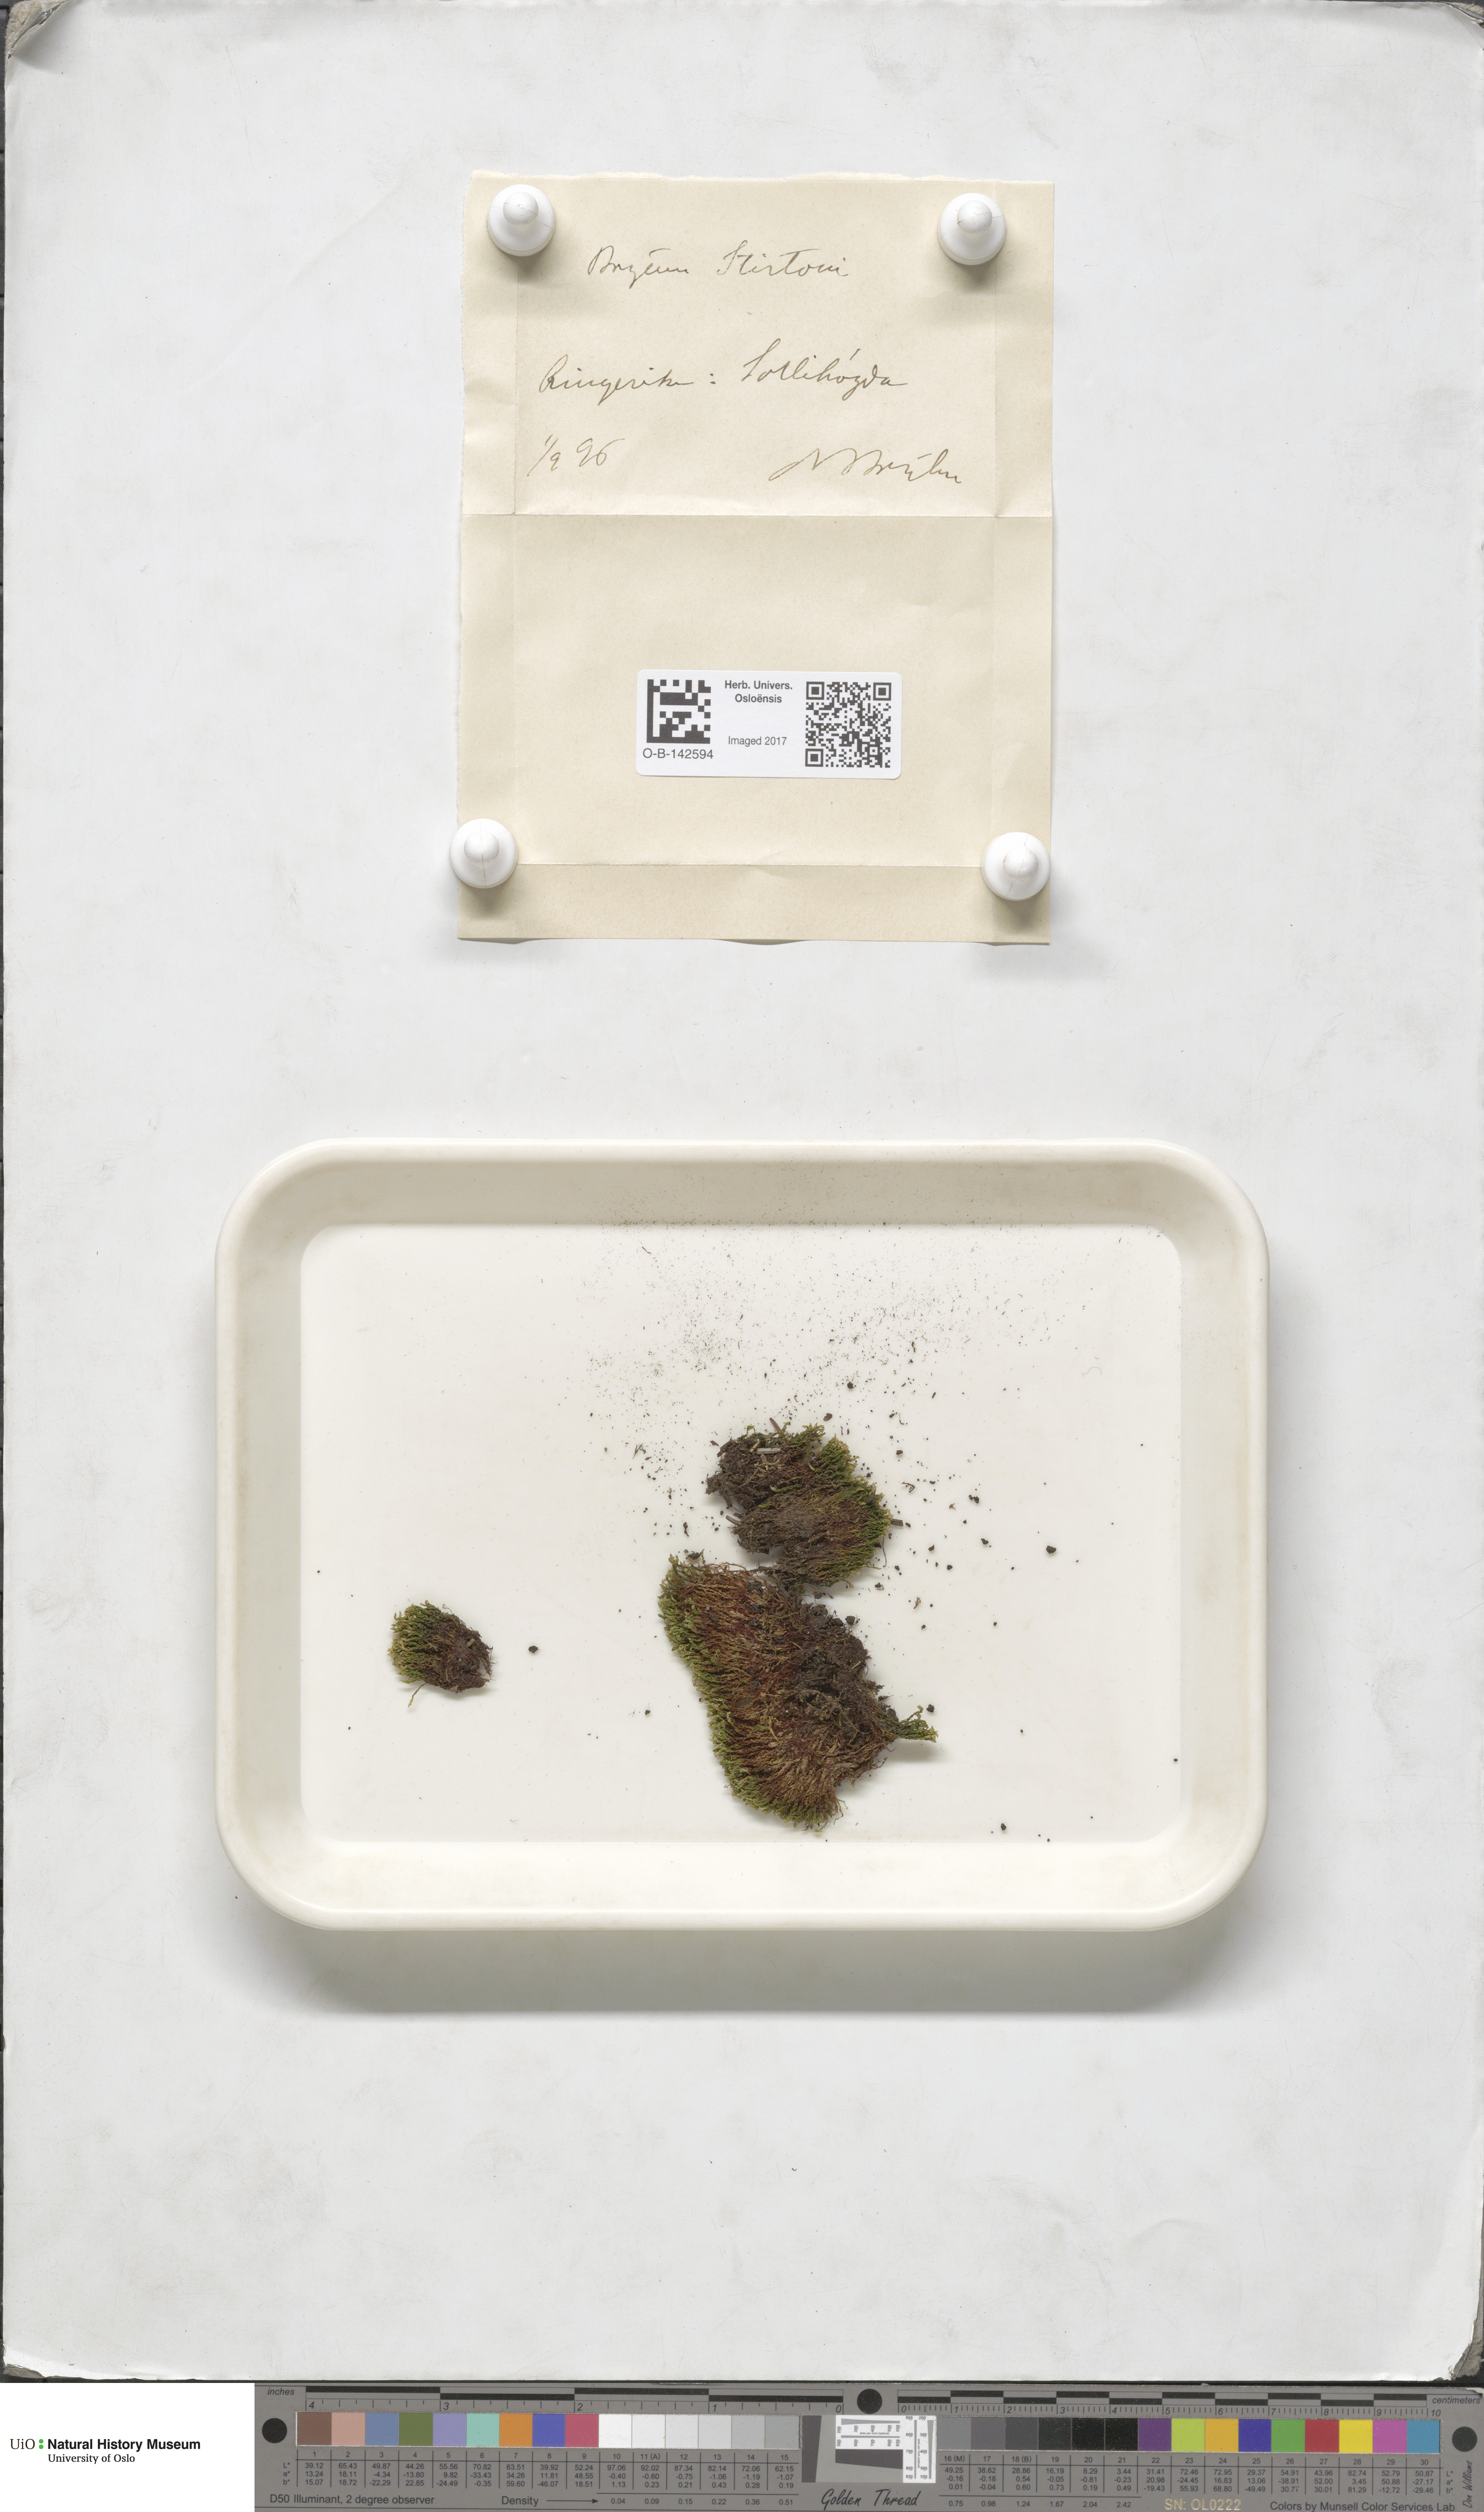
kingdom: Plantae
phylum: Bryophyta
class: Bryopsida
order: Bryales
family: Bryaceae
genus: Ptychostomum
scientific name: Ptychostomum weigelii
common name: Weigel's bryum moss
